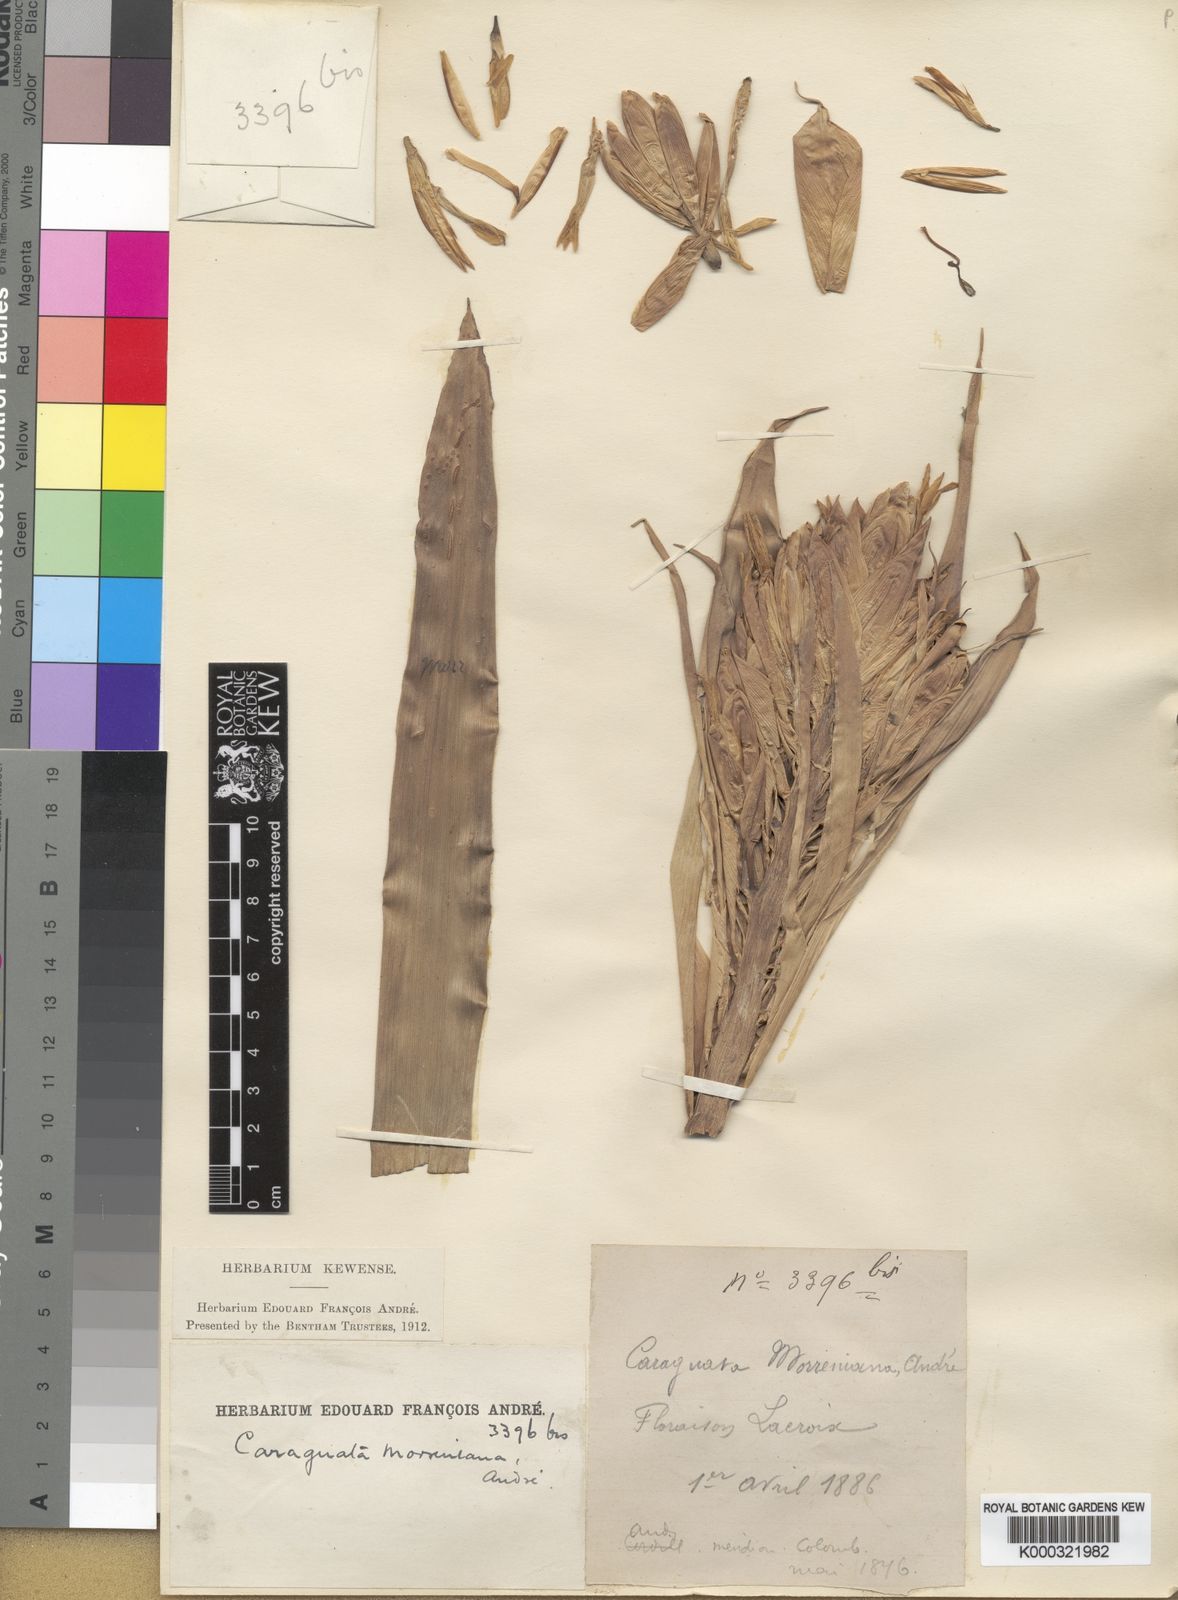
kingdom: Plantae
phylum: Tracheophyta
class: Liliopsida
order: Poales
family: Bromeliaceae
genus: Guzmania
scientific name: Guzmania
